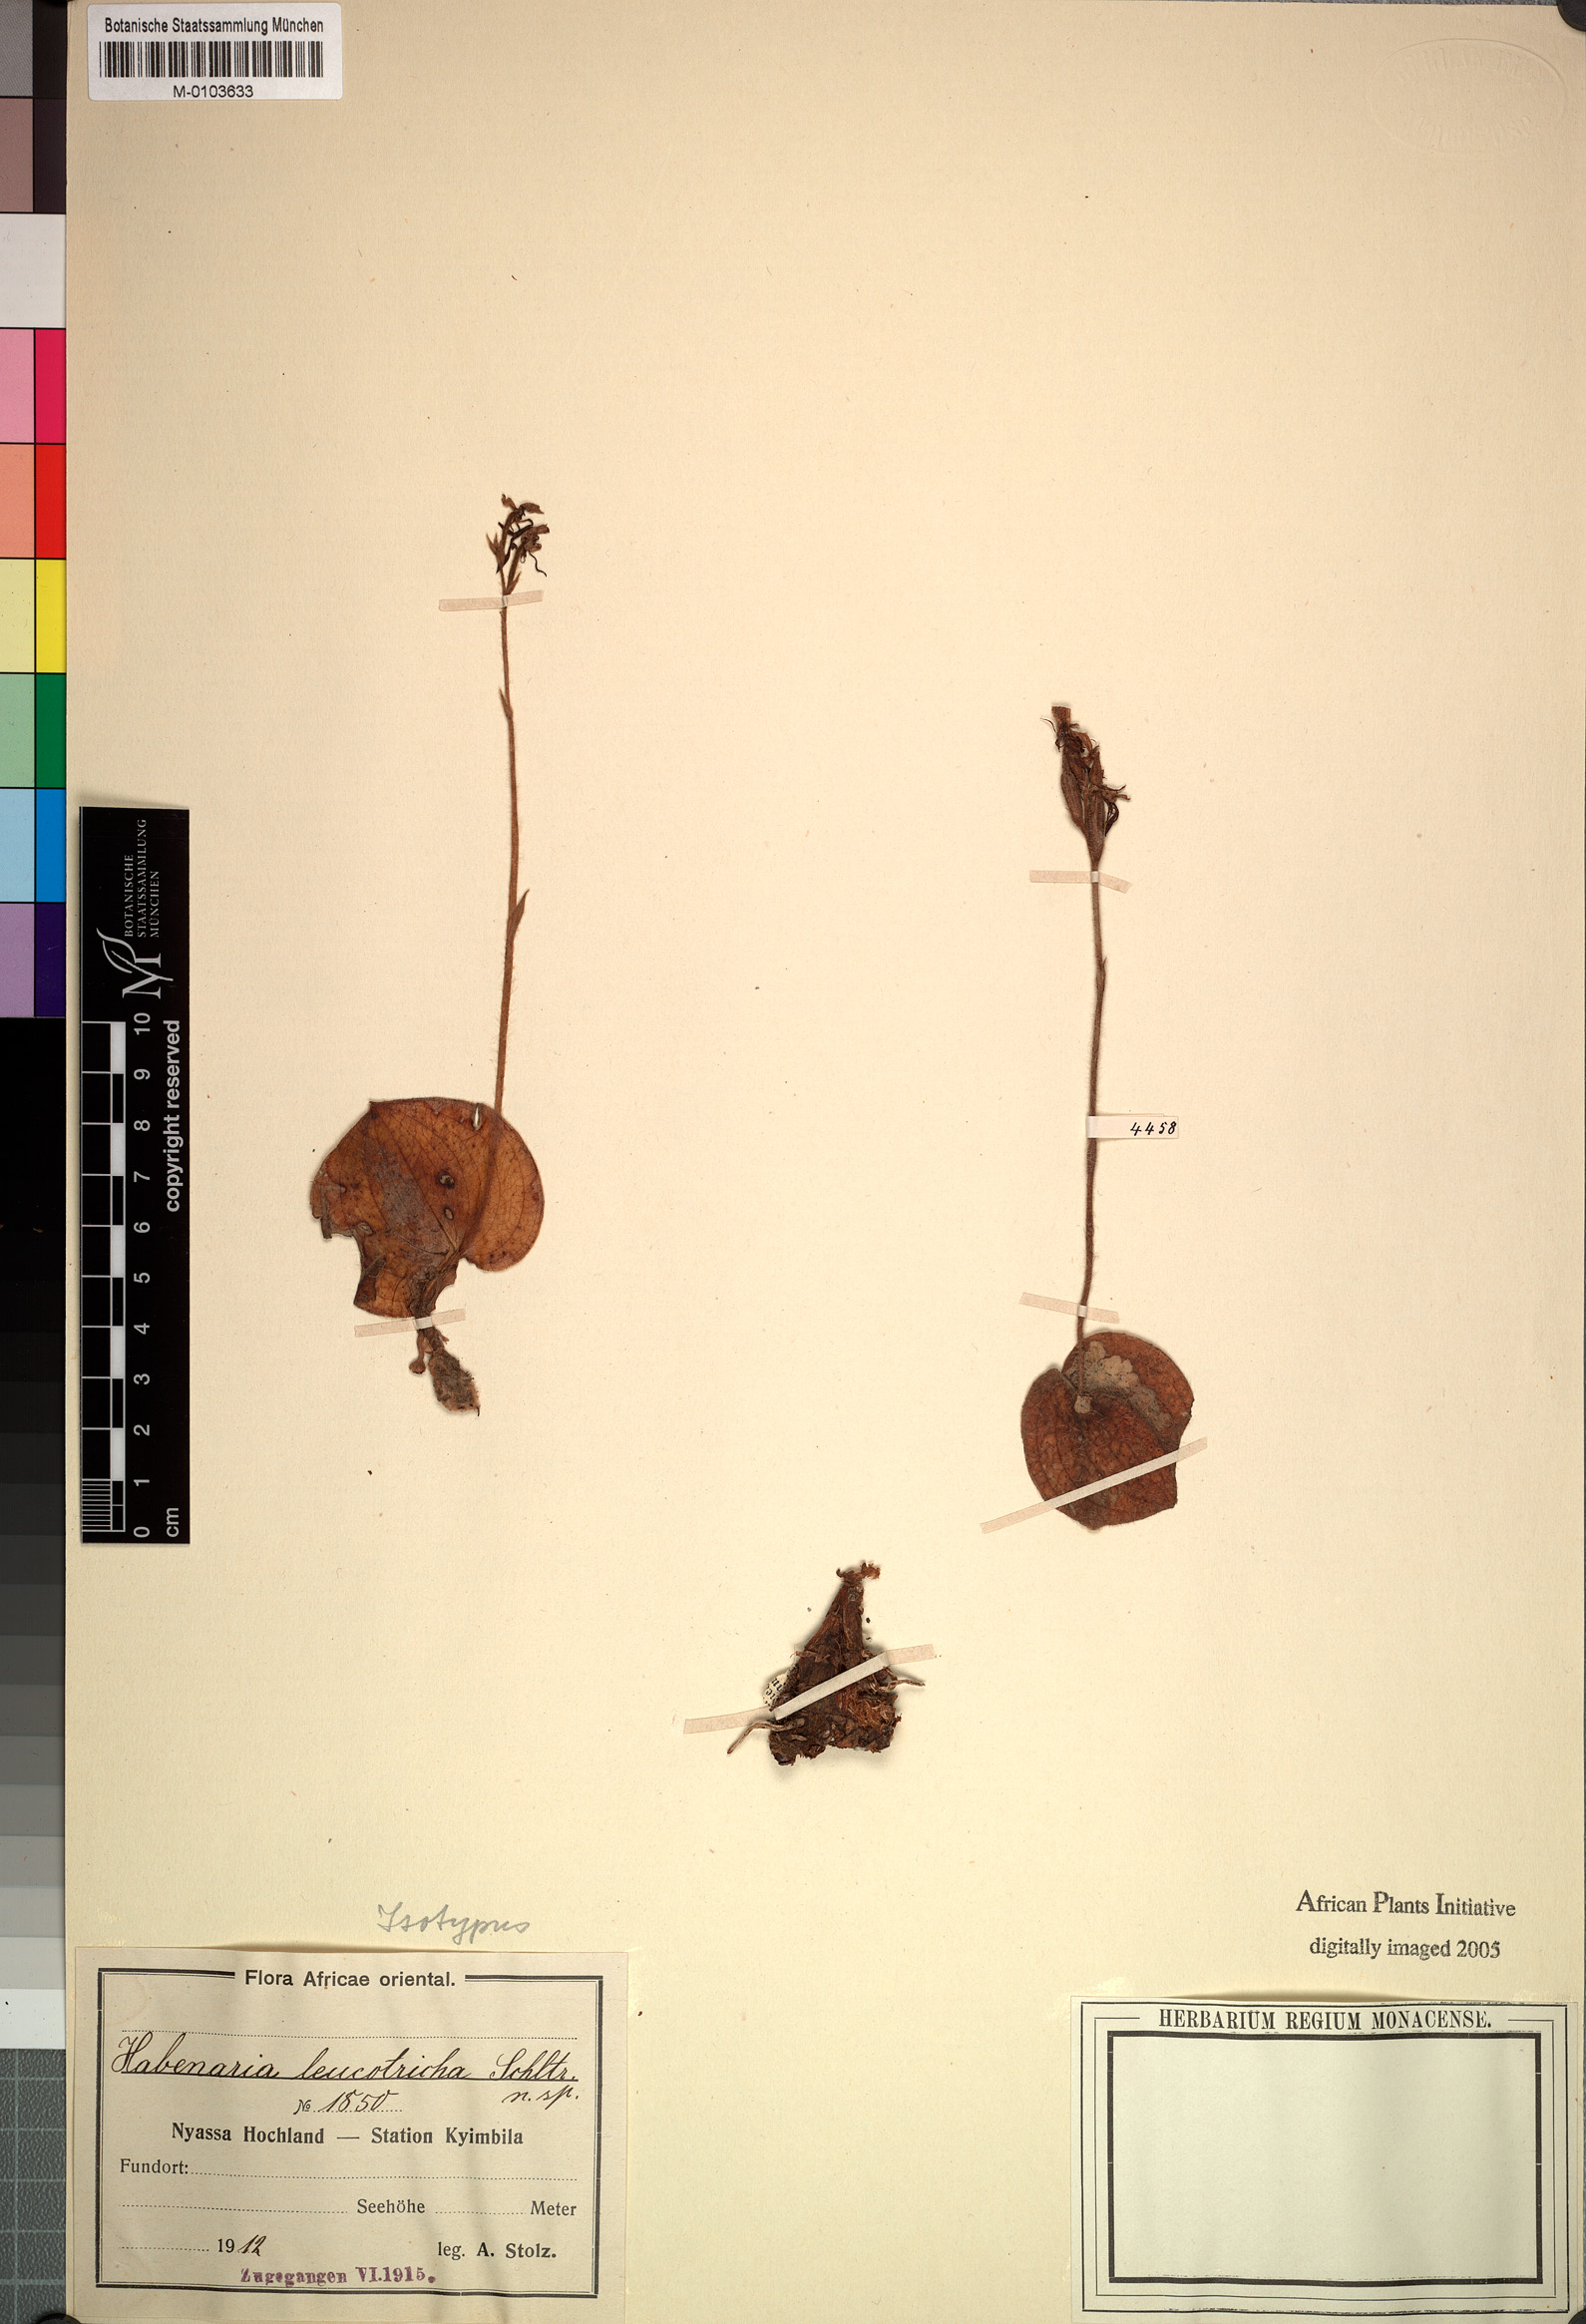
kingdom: Plantae
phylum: Tracheophyta
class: Liliopsida
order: Asparagales
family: Orchidaceae
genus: Habenaria
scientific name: Habenaria leucotricha
